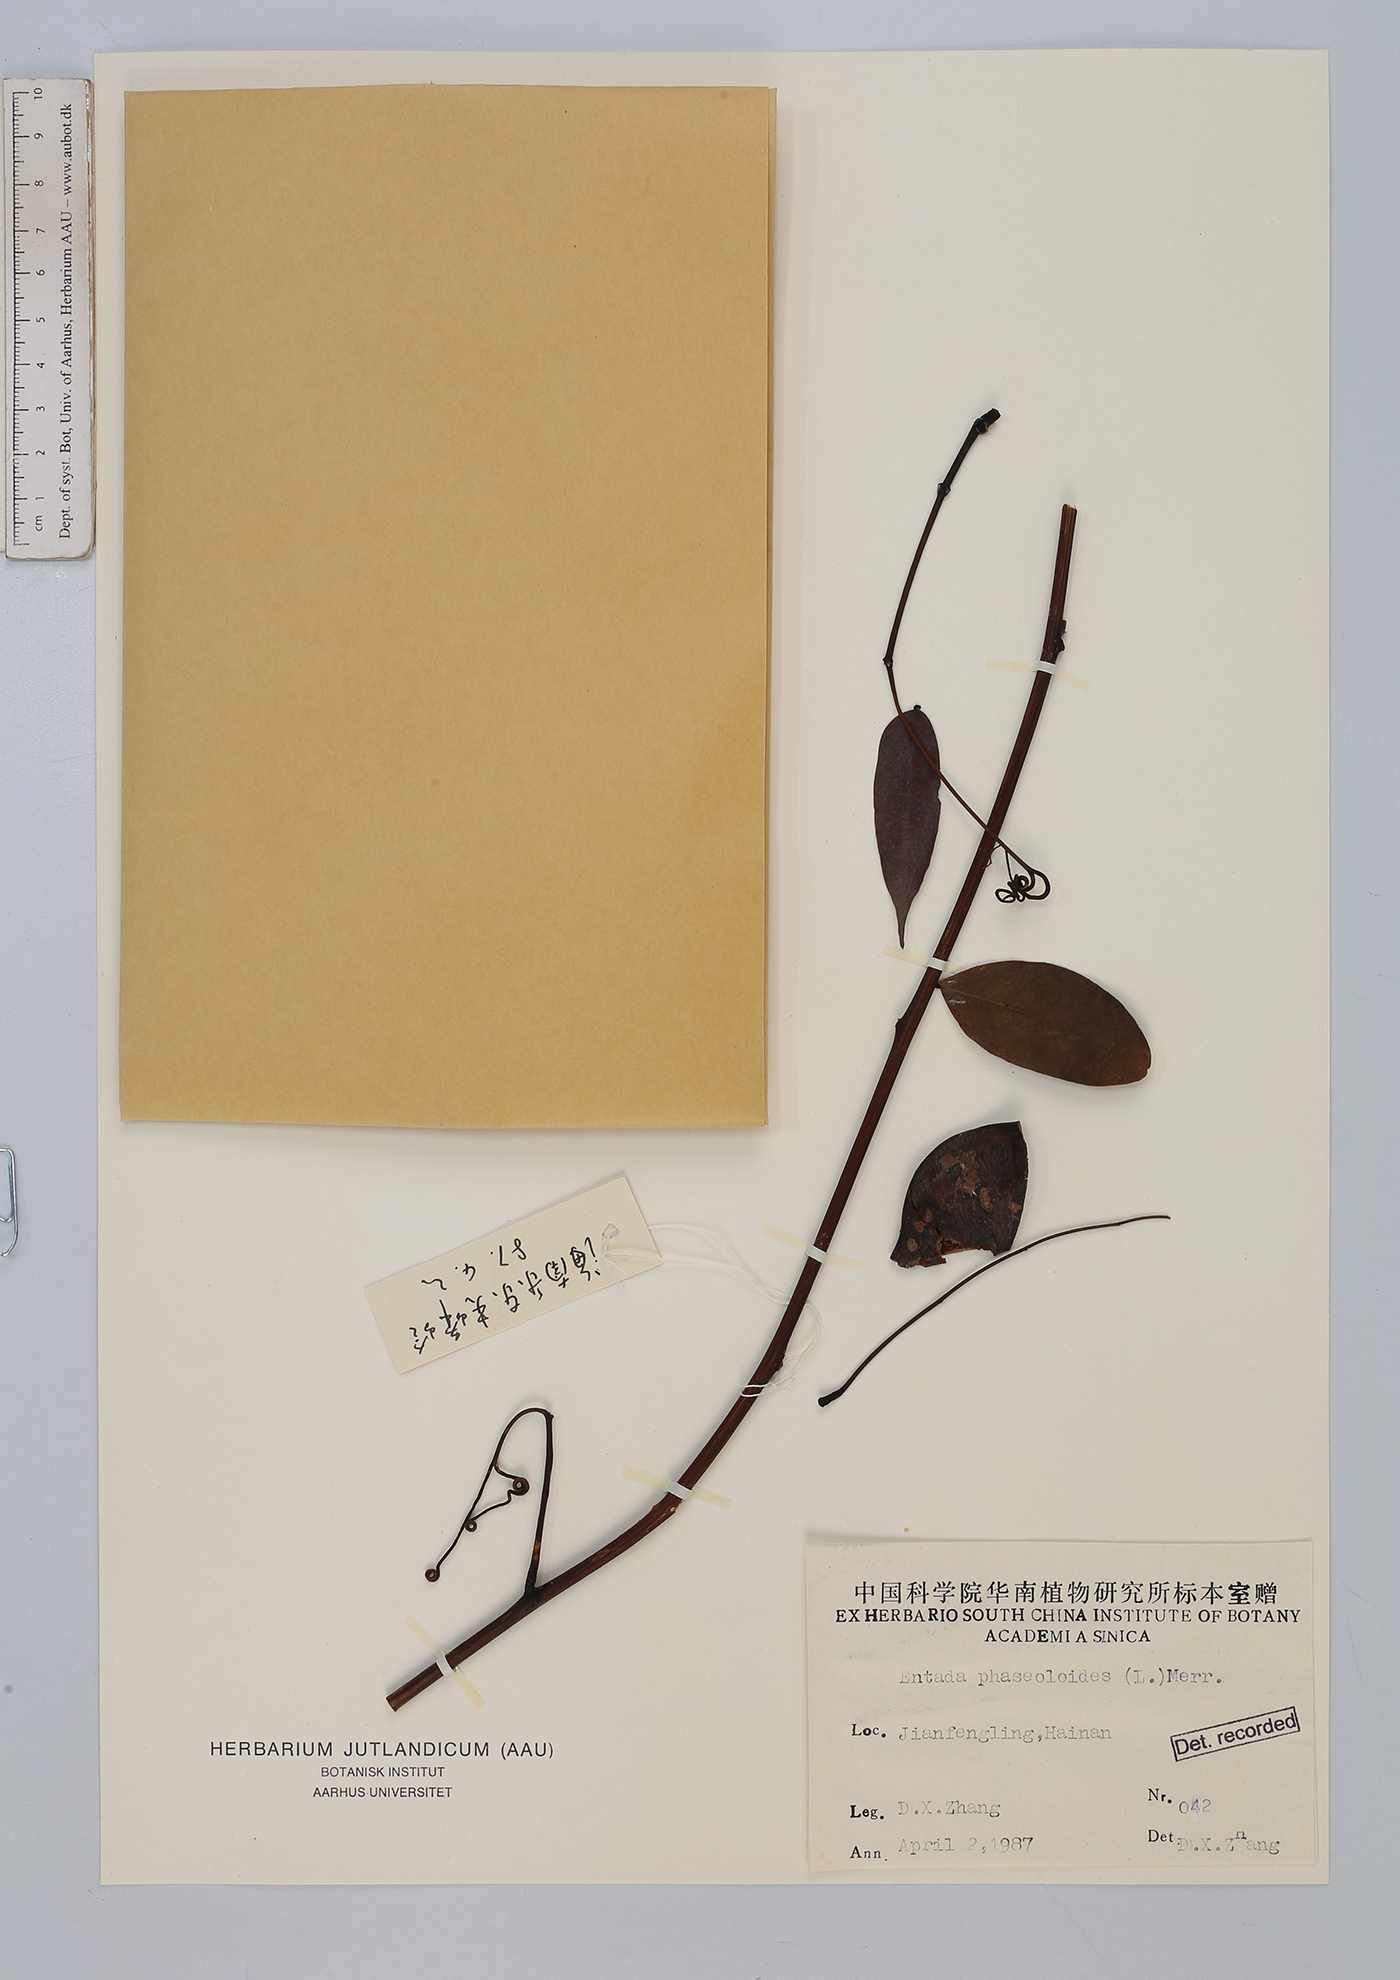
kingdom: Plantae
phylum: Tracheophyta
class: Magnoliopsida
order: Fabales
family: Fabaceae
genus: Entada
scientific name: Entada phaseoloides
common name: Matchbox-bean
